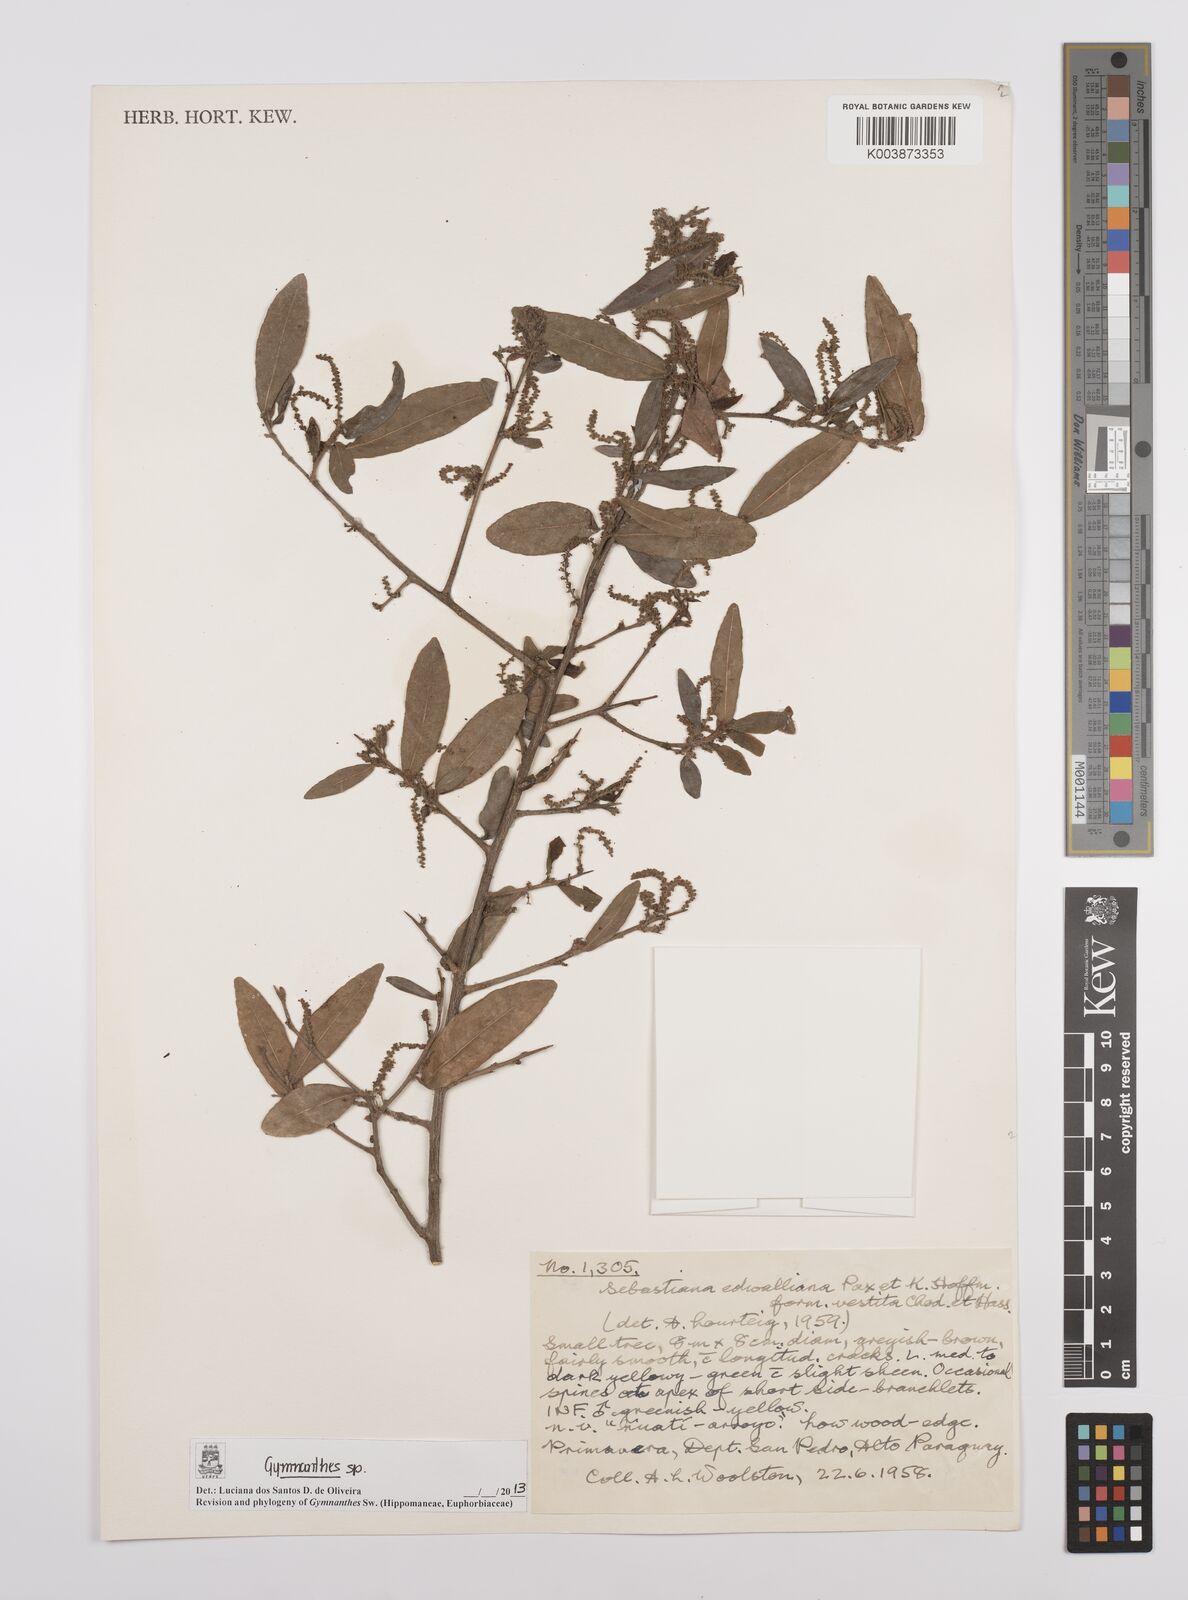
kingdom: Plantae
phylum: Tracheophyta
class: Magnoliopsida
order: Malpighiales
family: Euphorbiaceae
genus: Gymnanthes
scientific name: Gymnanthes
